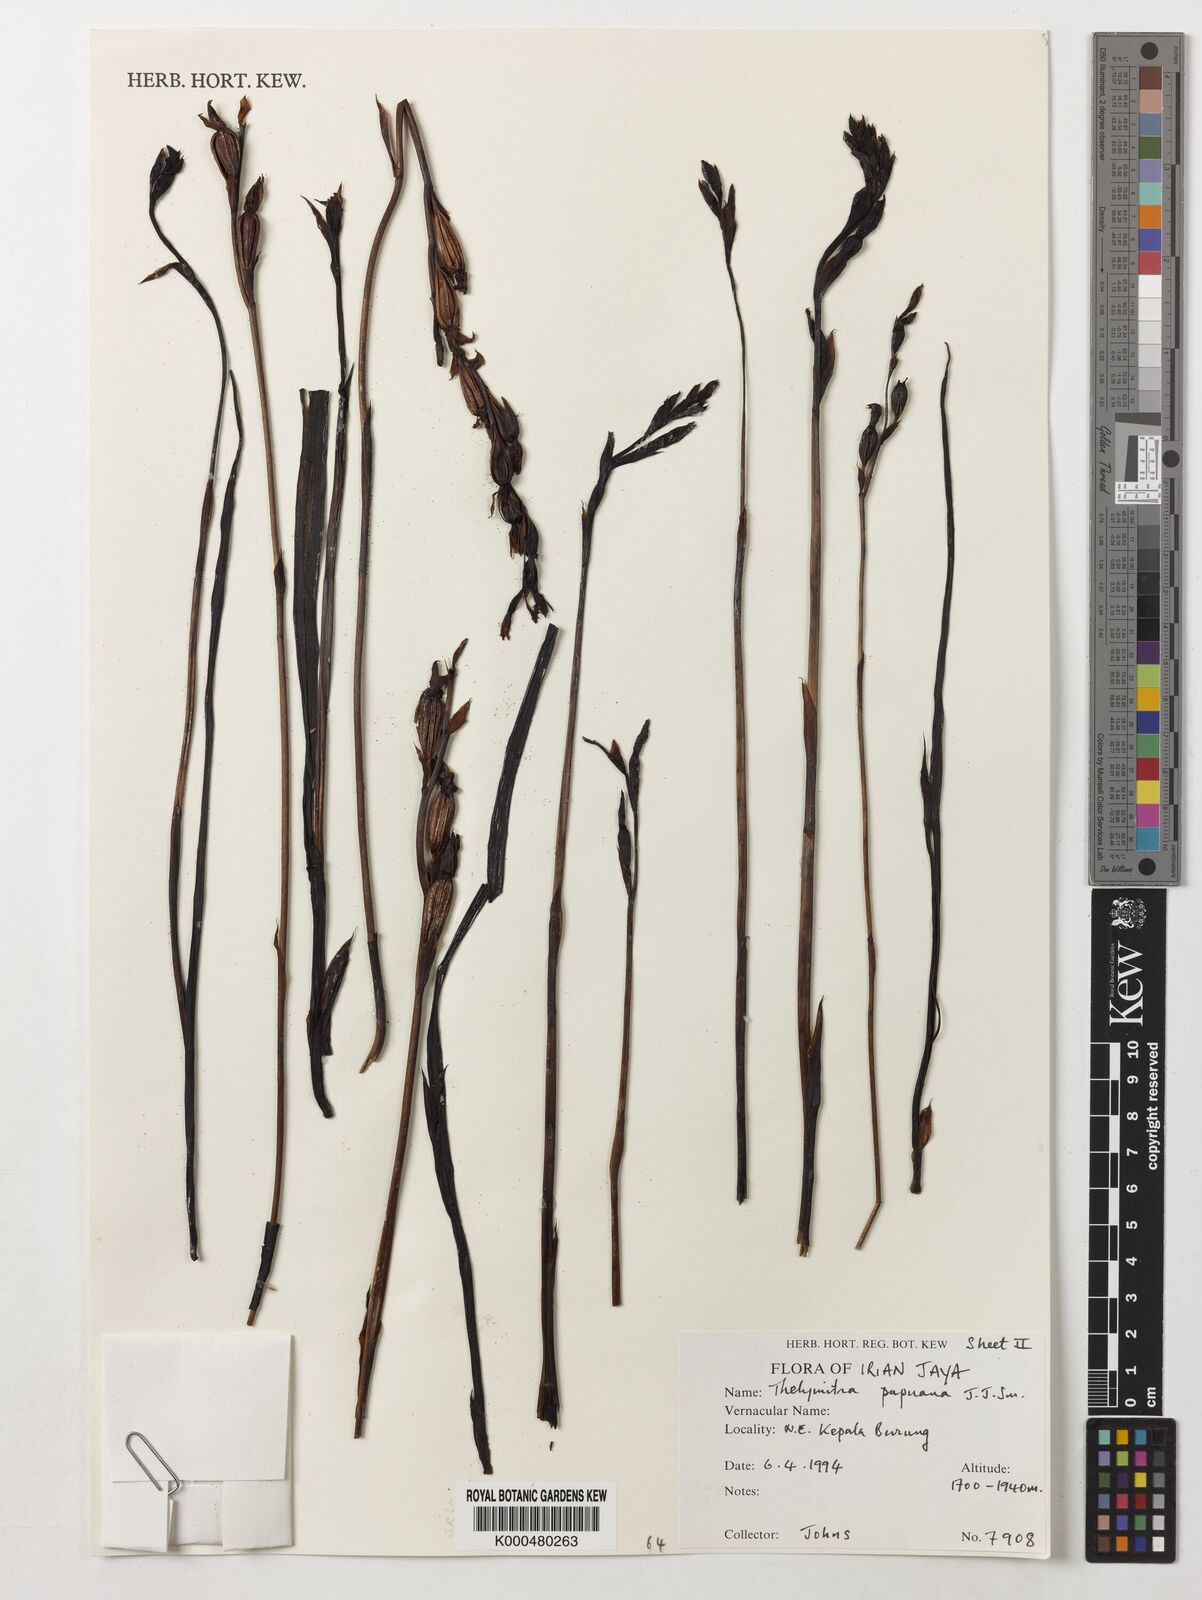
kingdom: Plantae
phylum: Tracheophyta
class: Liliopsida
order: Asparagales
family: Orchidaceae
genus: Thelymitra
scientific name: Thelymitra papuana
